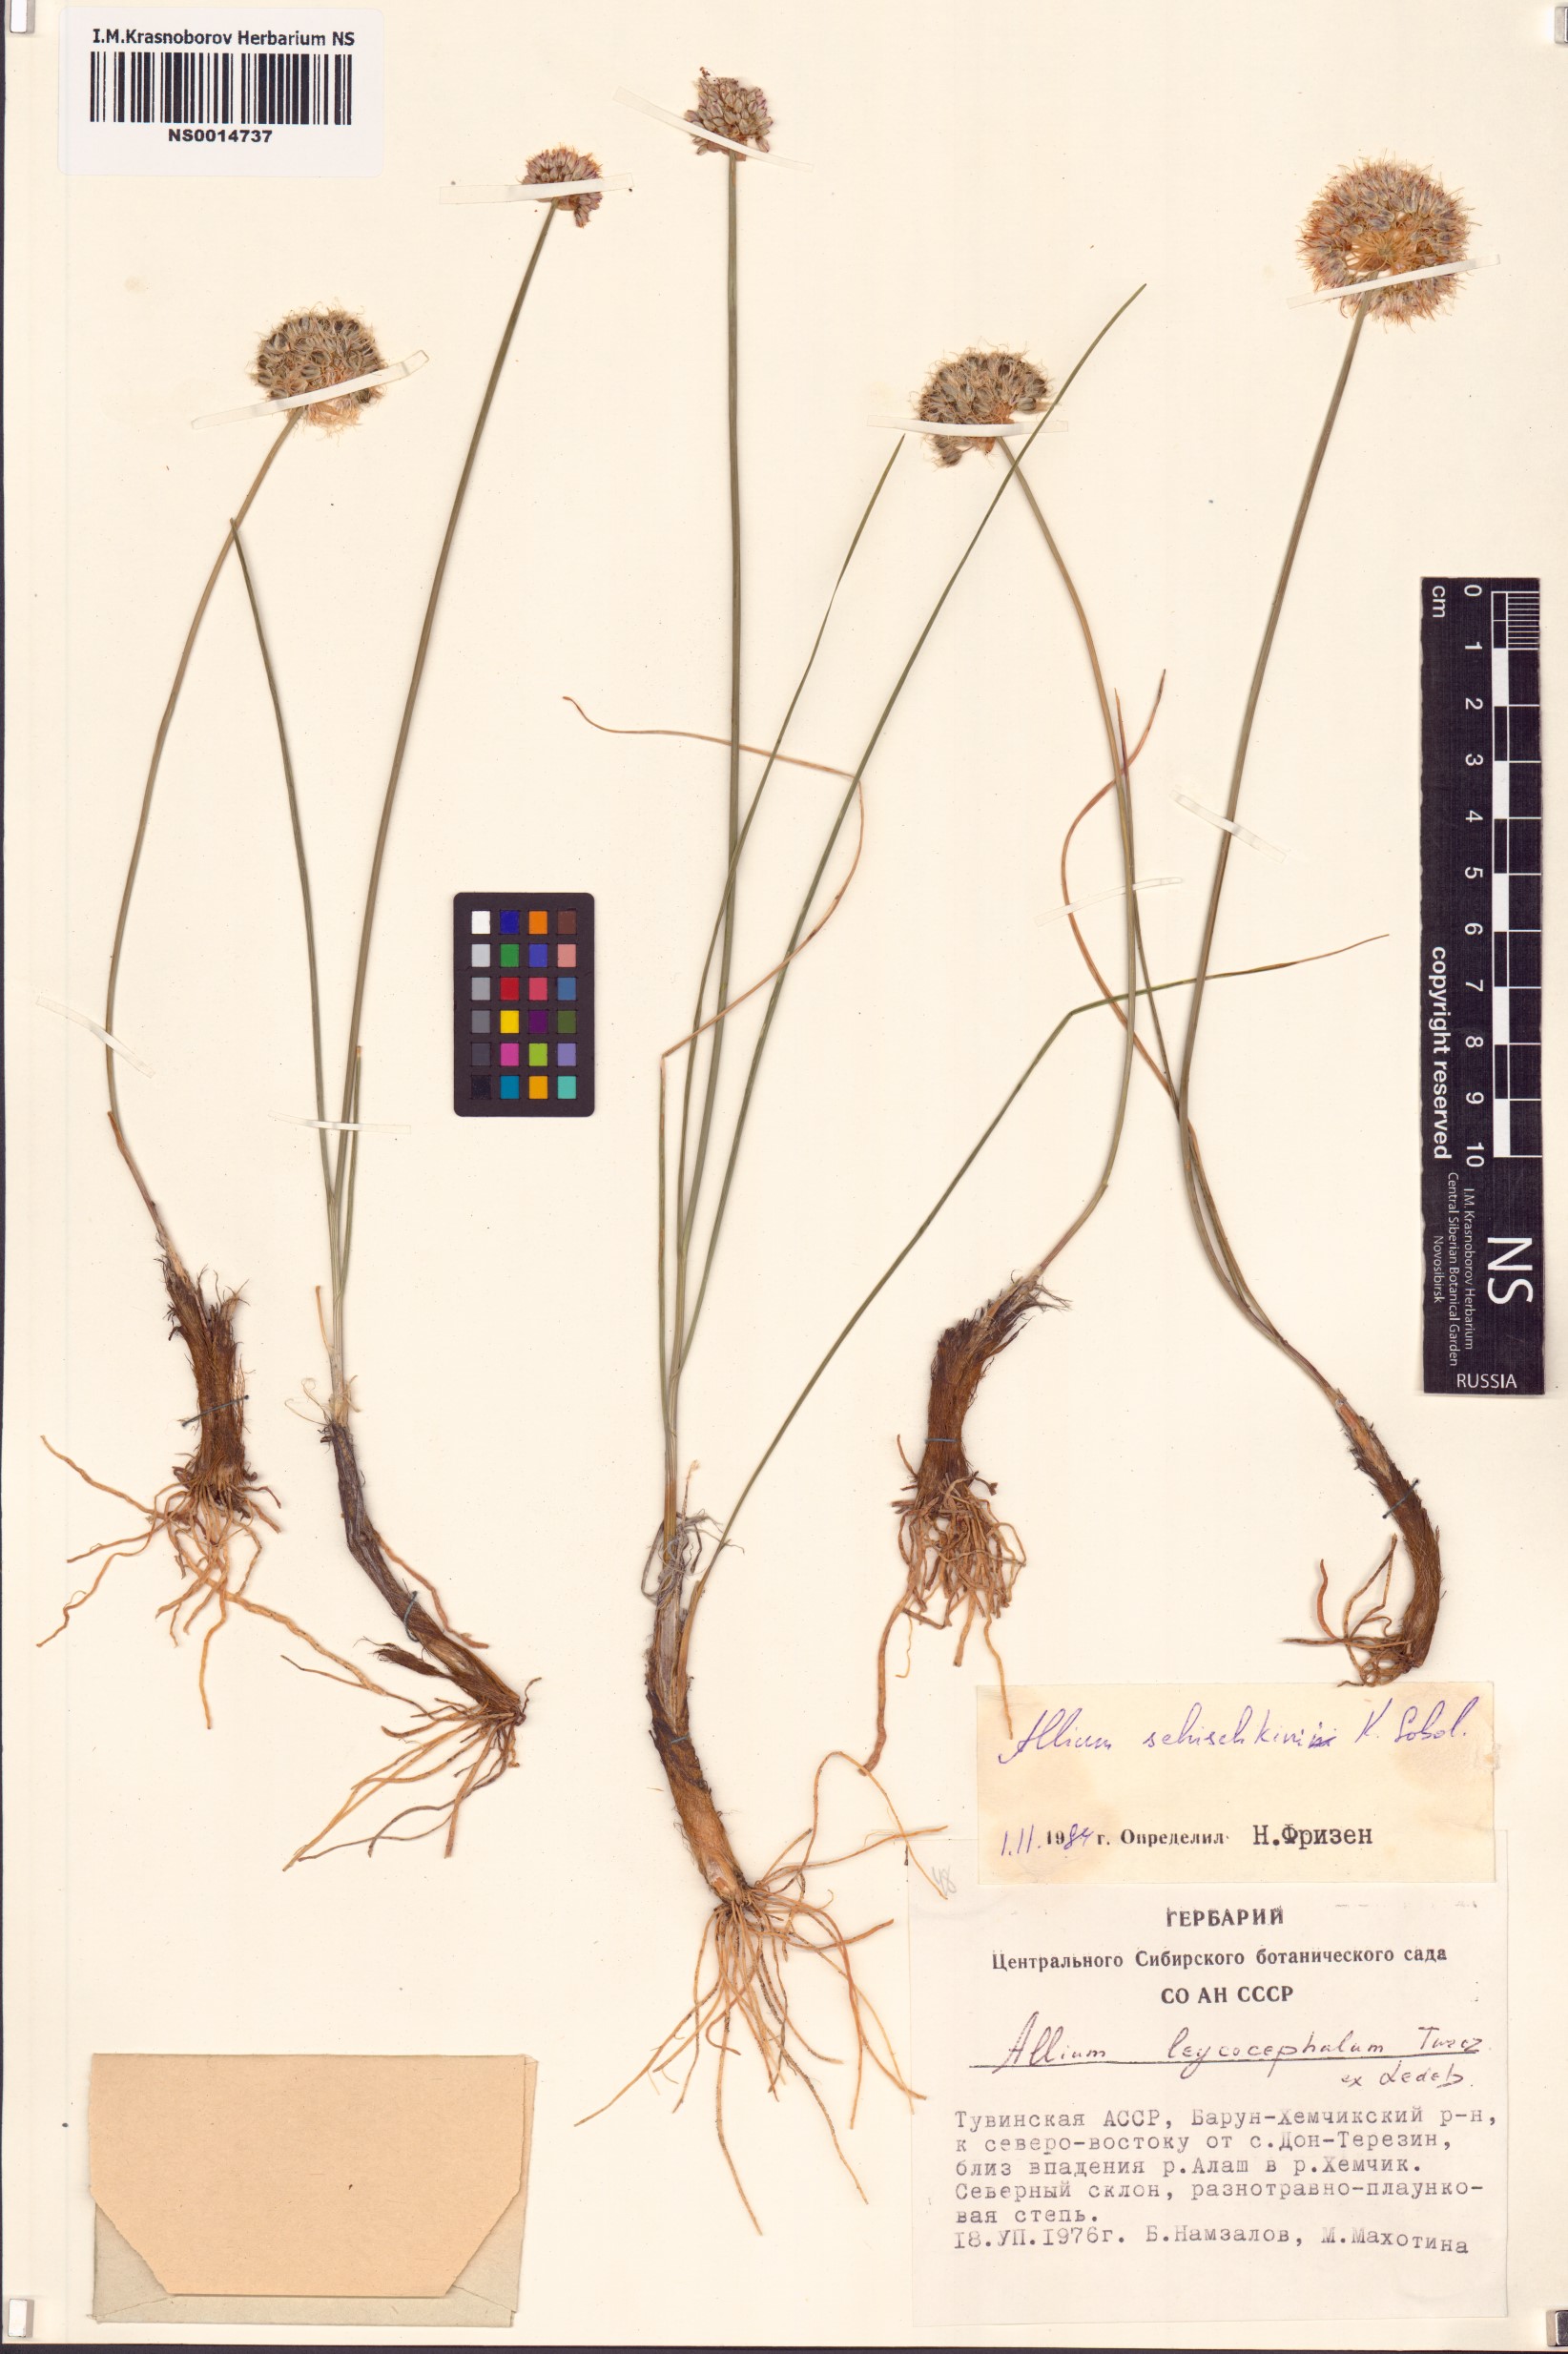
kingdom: Plantae
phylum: Tracheophyta
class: Liliopsida
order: Asparagales
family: Amaryllidaceae
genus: Allium
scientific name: Allium schischkinii
